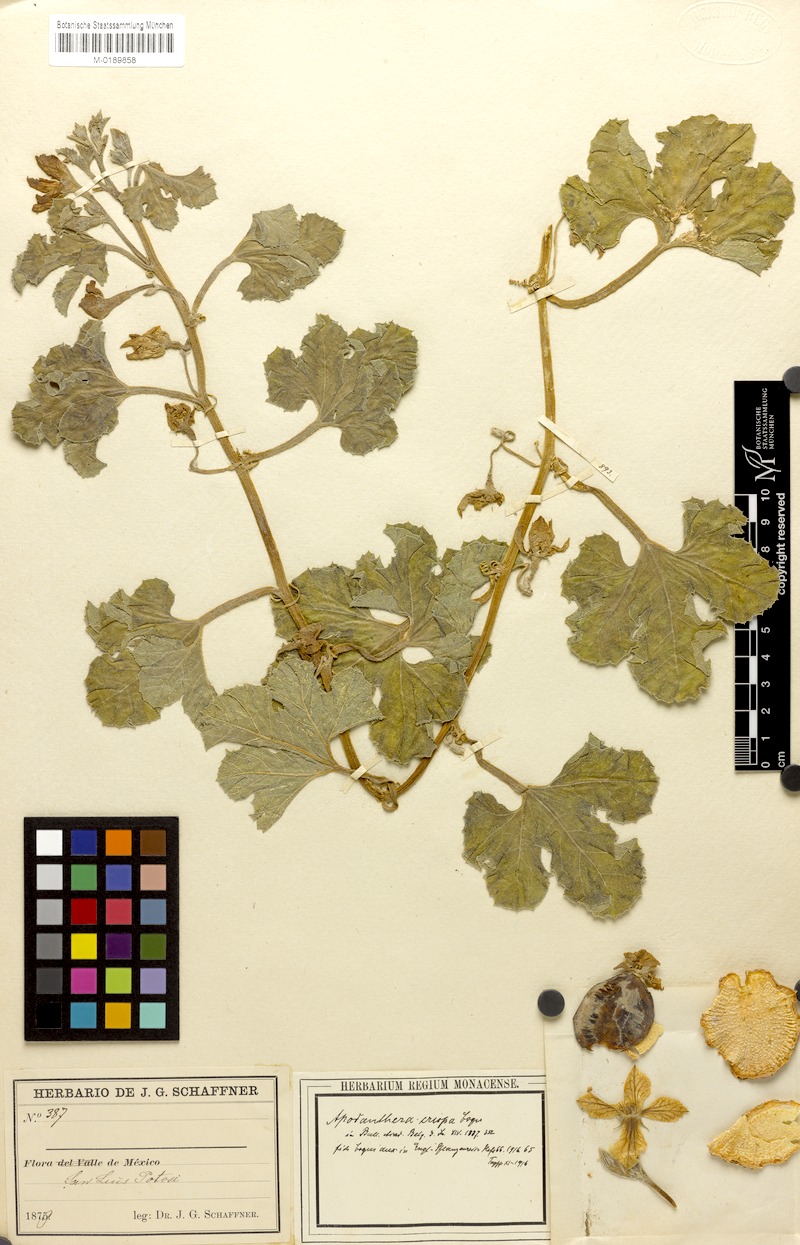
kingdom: Plantae
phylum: Tracheophyta
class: Magnoliopsida
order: Cucurbitales
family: Cucurbitaceae
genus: Apodanthera
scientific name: Apodanthera crispa
